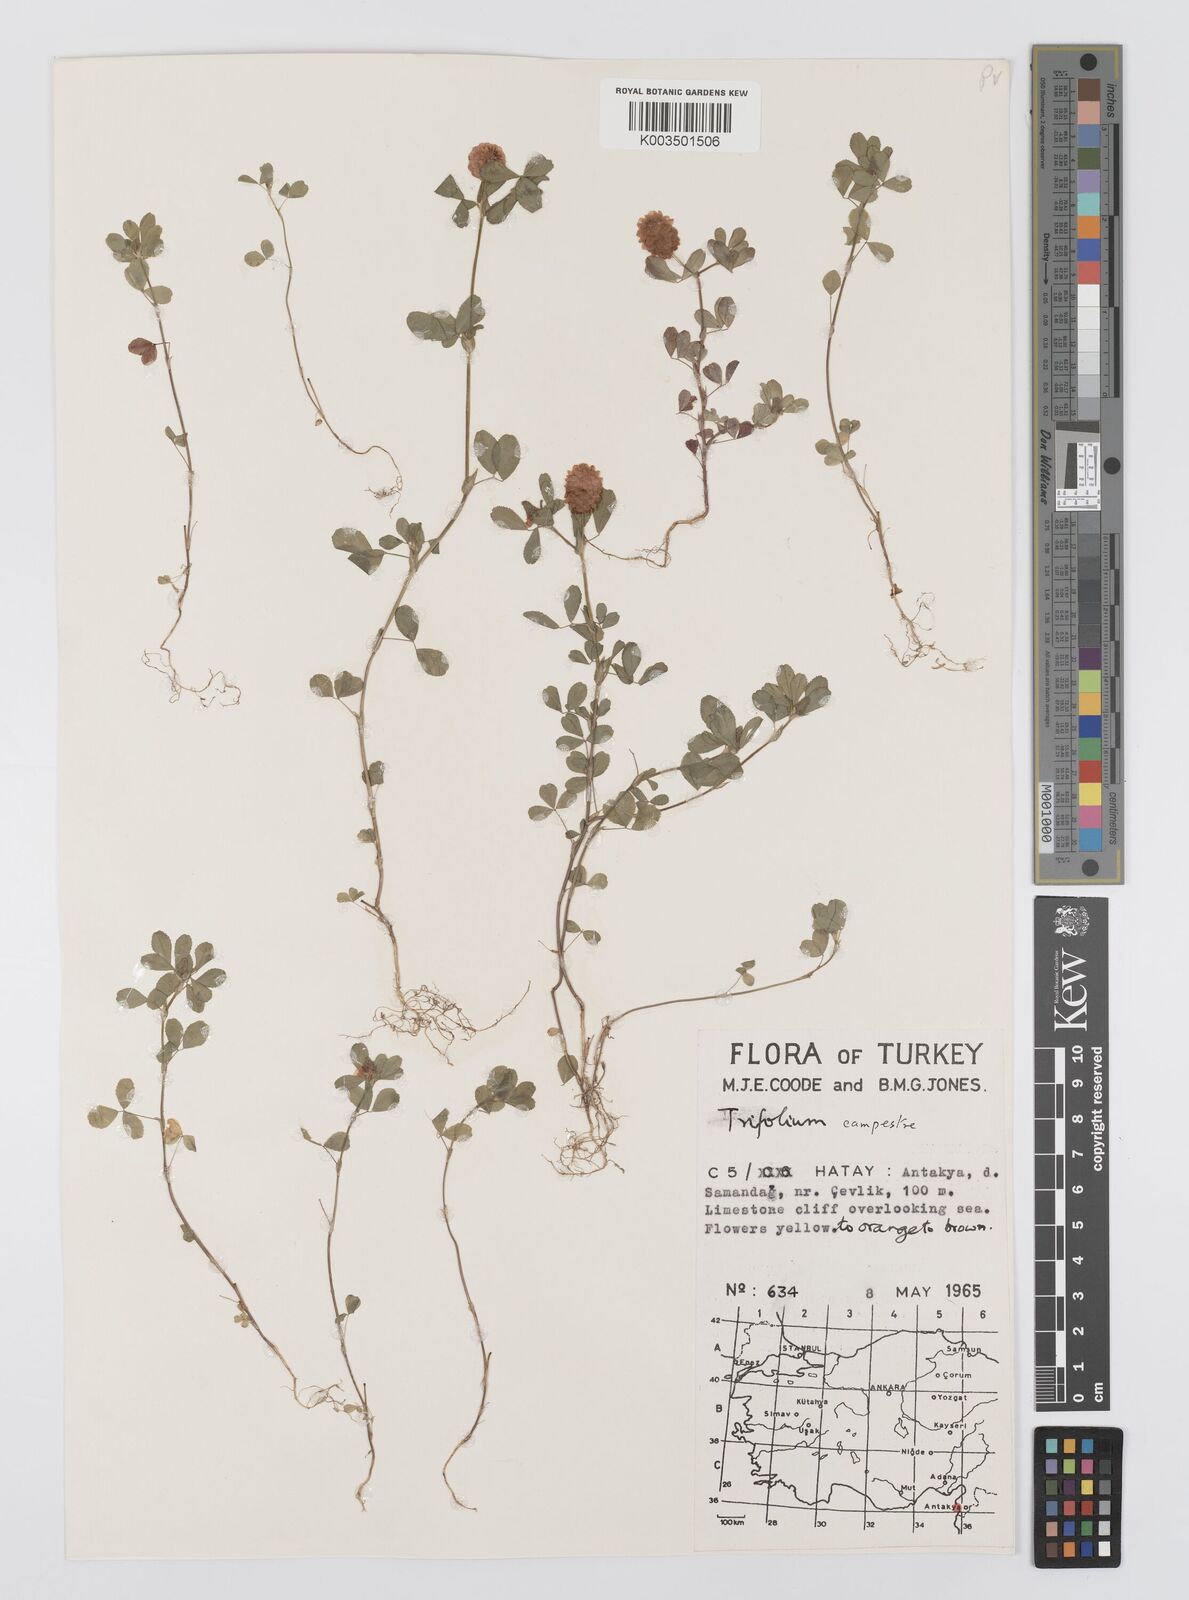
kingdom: Plantae
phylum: Tracheophyta
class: Magnoliopsida
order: Fabales
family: Fabaceae
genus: Trifolium
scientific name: Trifolium campestre
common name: Field clover
